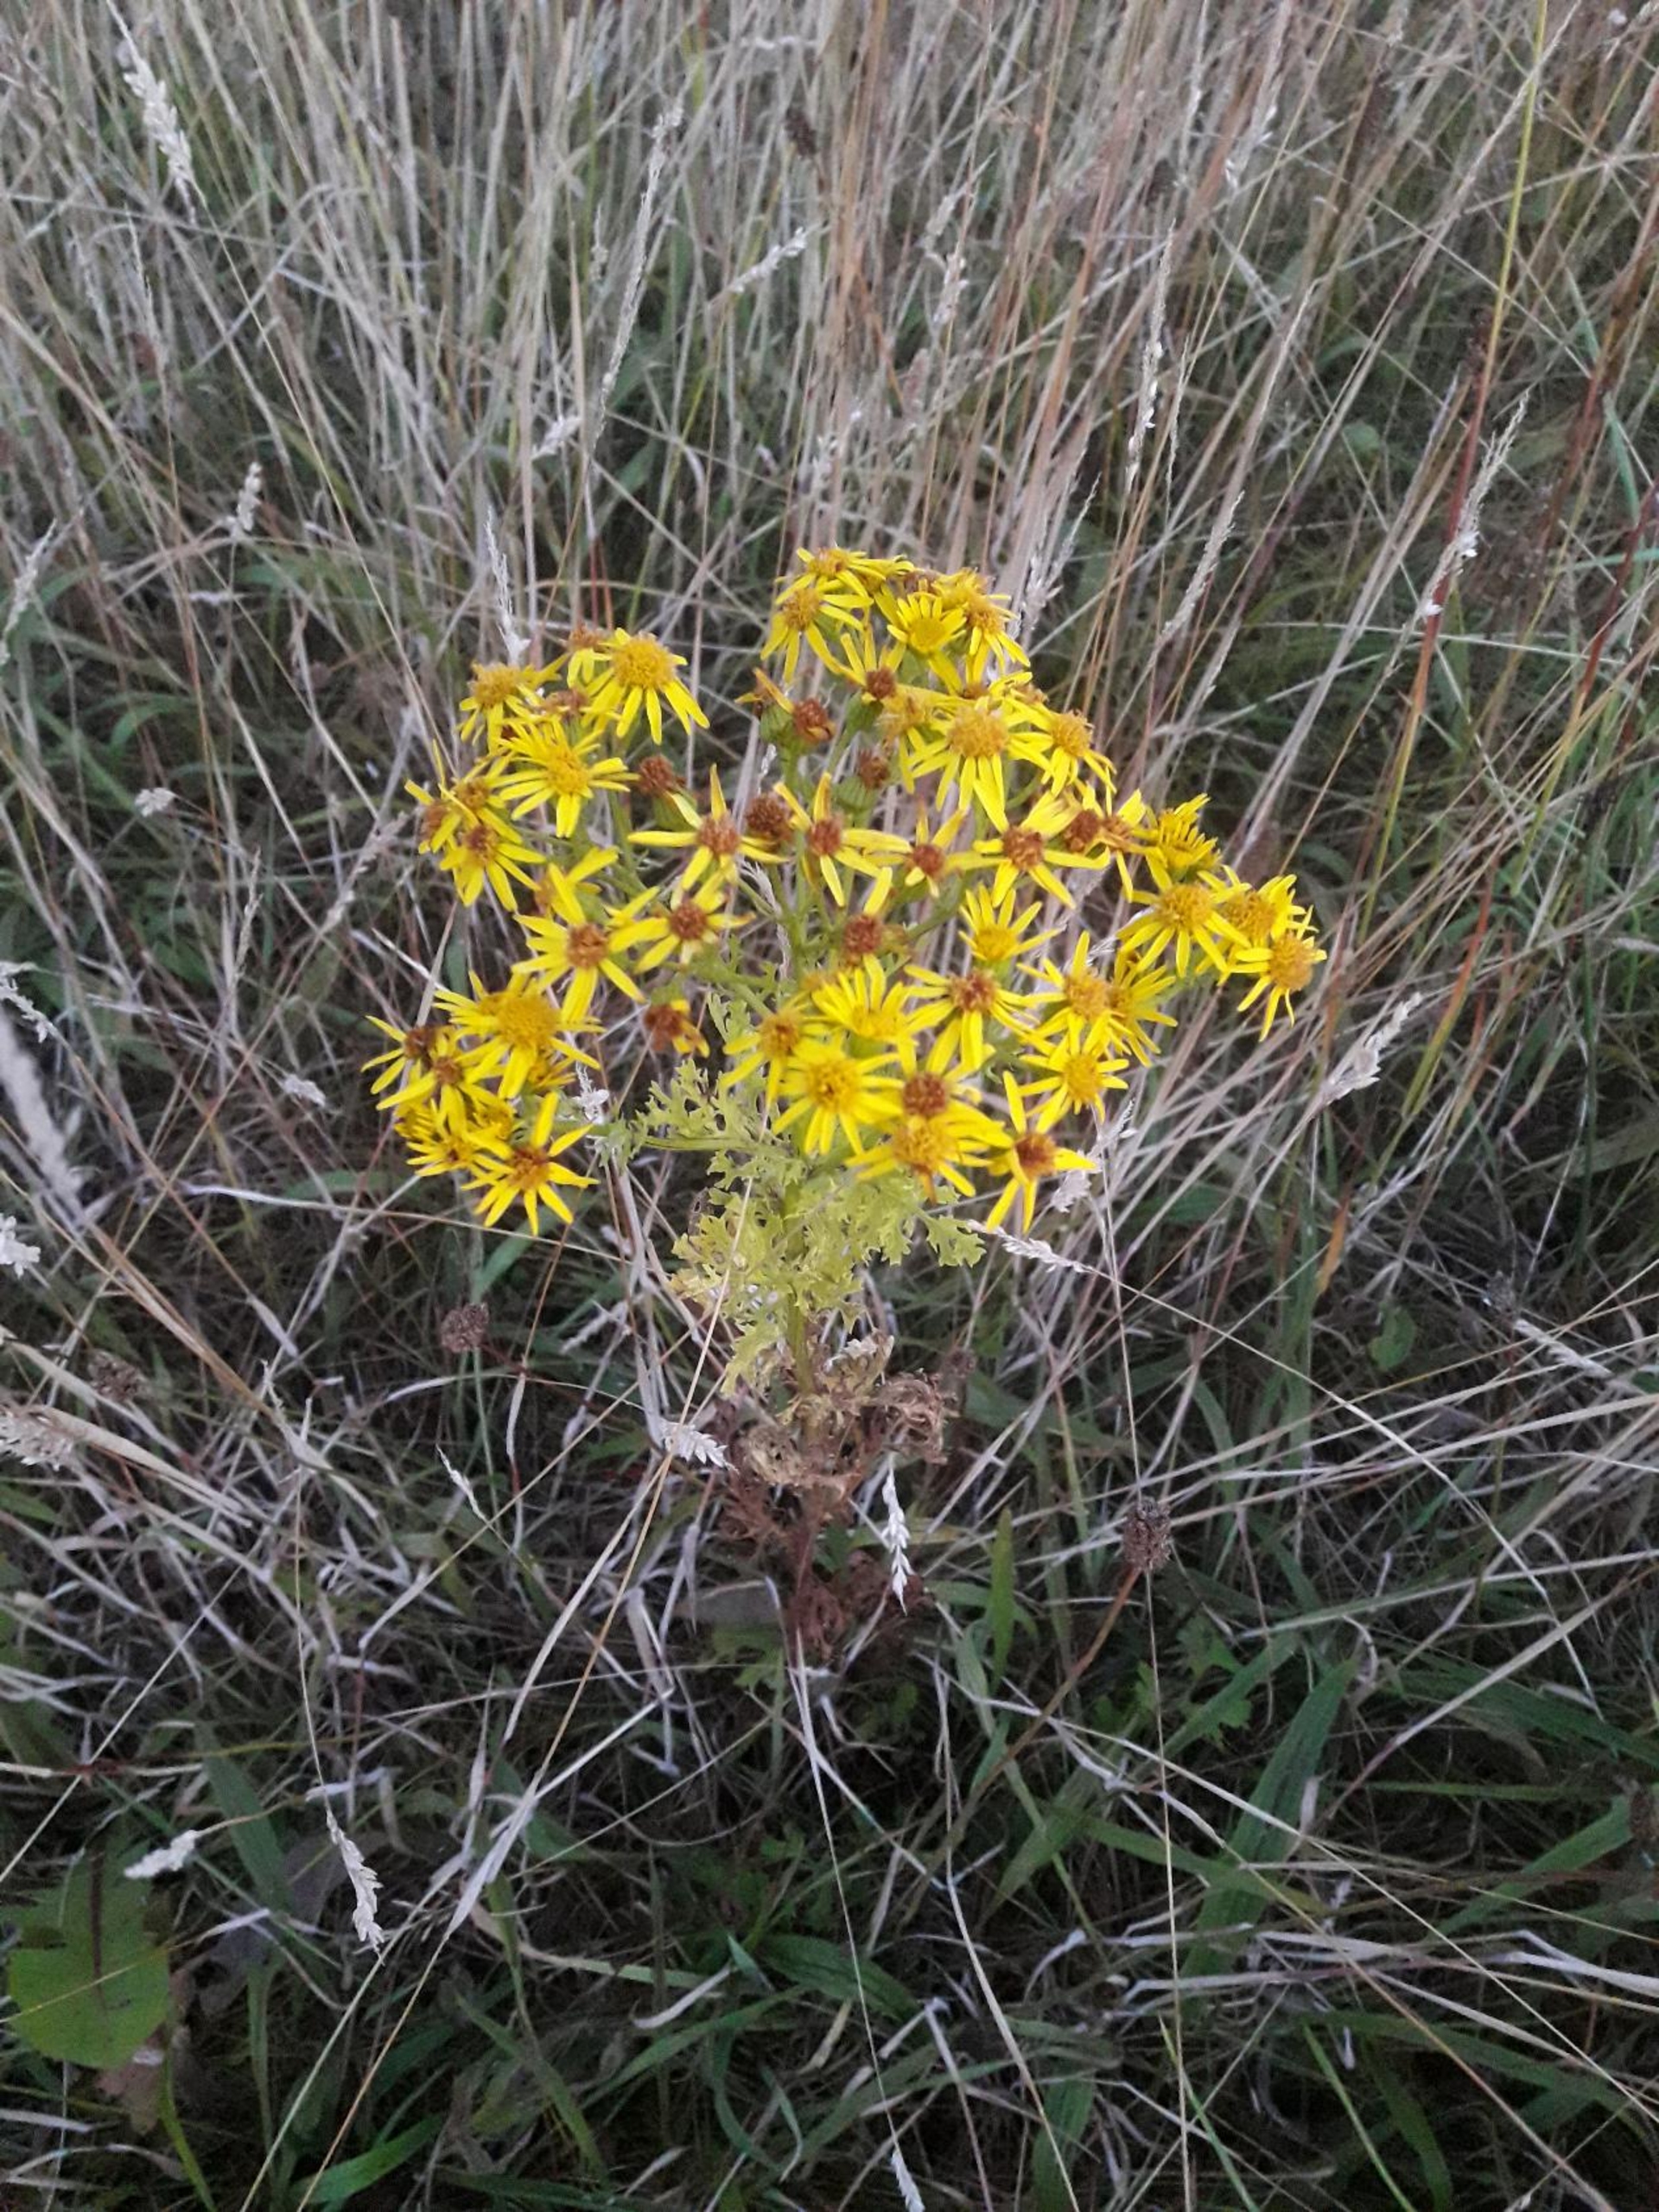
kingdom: Plantae
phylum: Tracheophyta
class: Magnoliopsida
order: Asterales
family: Asteraceae
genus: Jacobaea
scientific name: Jacobaea vulgaris
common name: Eng-brandbæger
